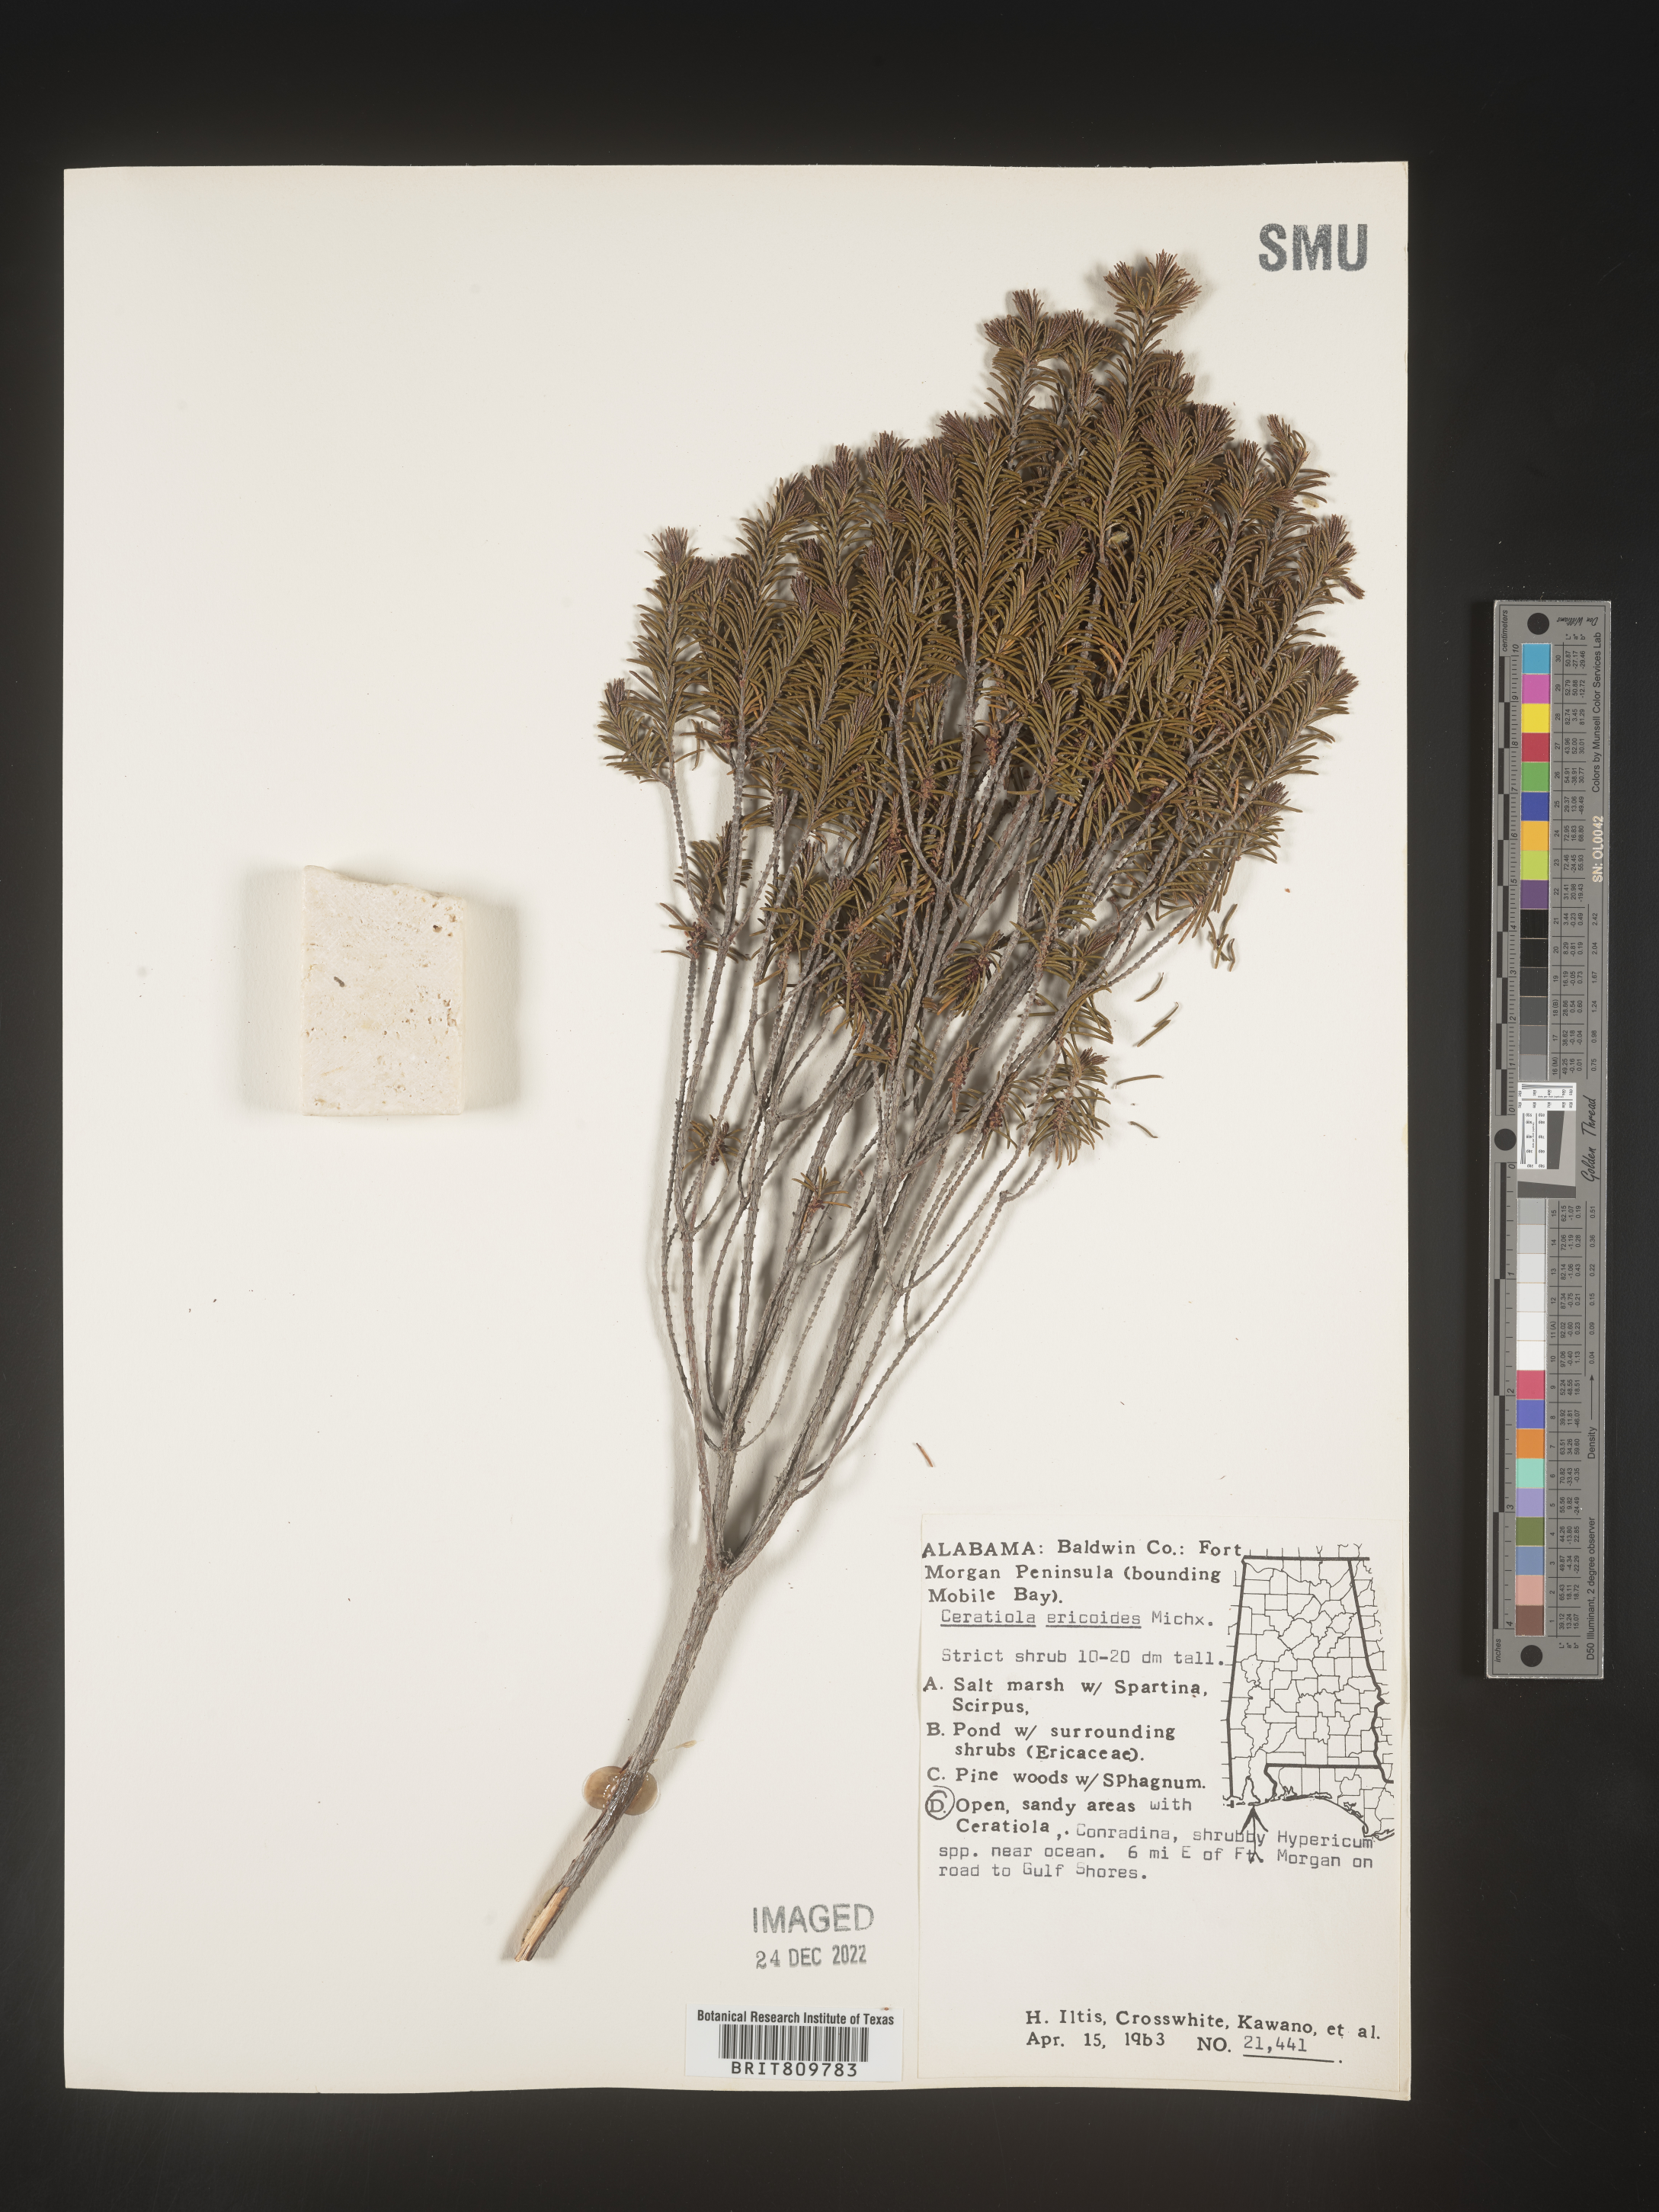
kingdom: Plantae
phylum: Tracheophyta
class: Magnoliopsida
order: Ericales
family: Ericaceae
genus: Ceratiola
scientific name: Ceratiola ericoides
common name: Sandhill-rosemary
